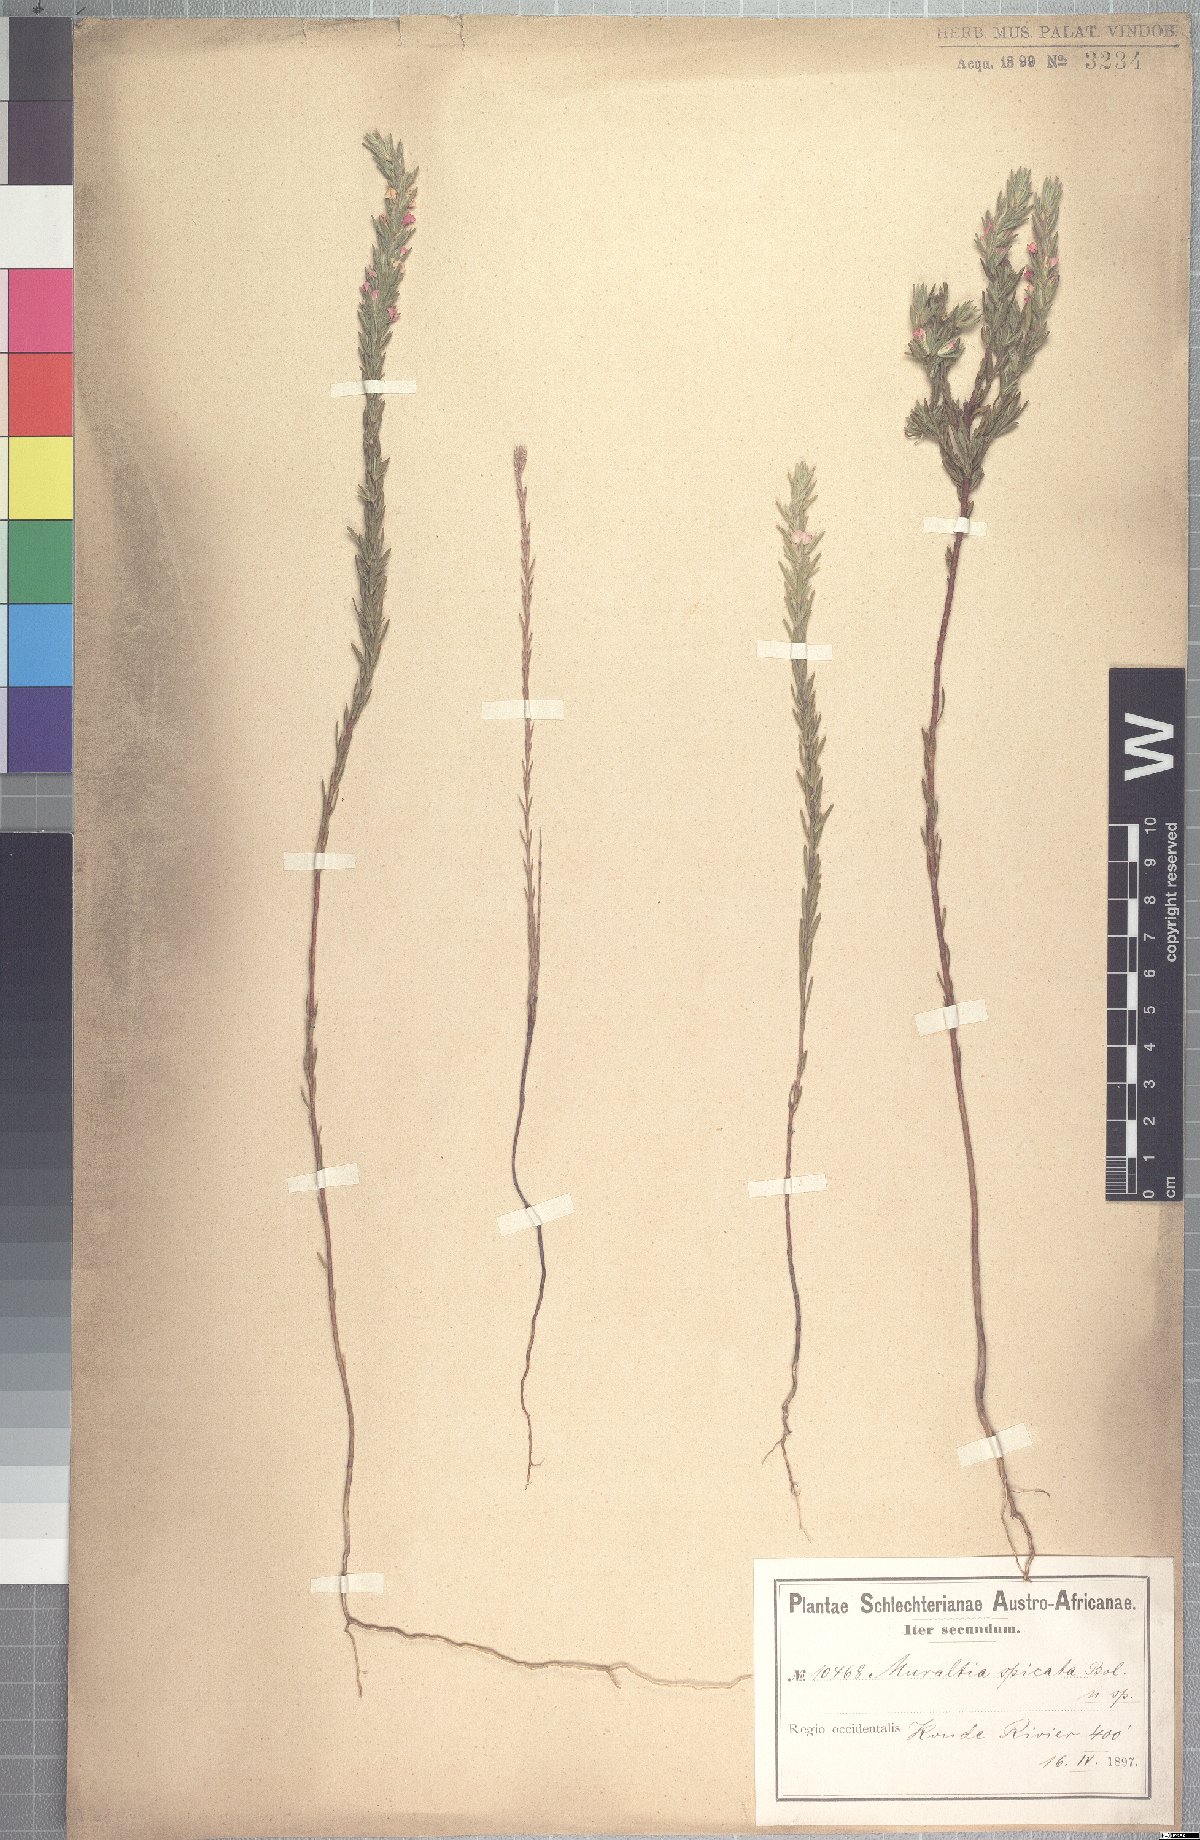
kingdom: Plantae
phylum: Tracheophyta
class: Magnoliopsida
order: Fabales
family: Polygalaceae
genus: Muraltia
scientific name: Muraltia spicata
